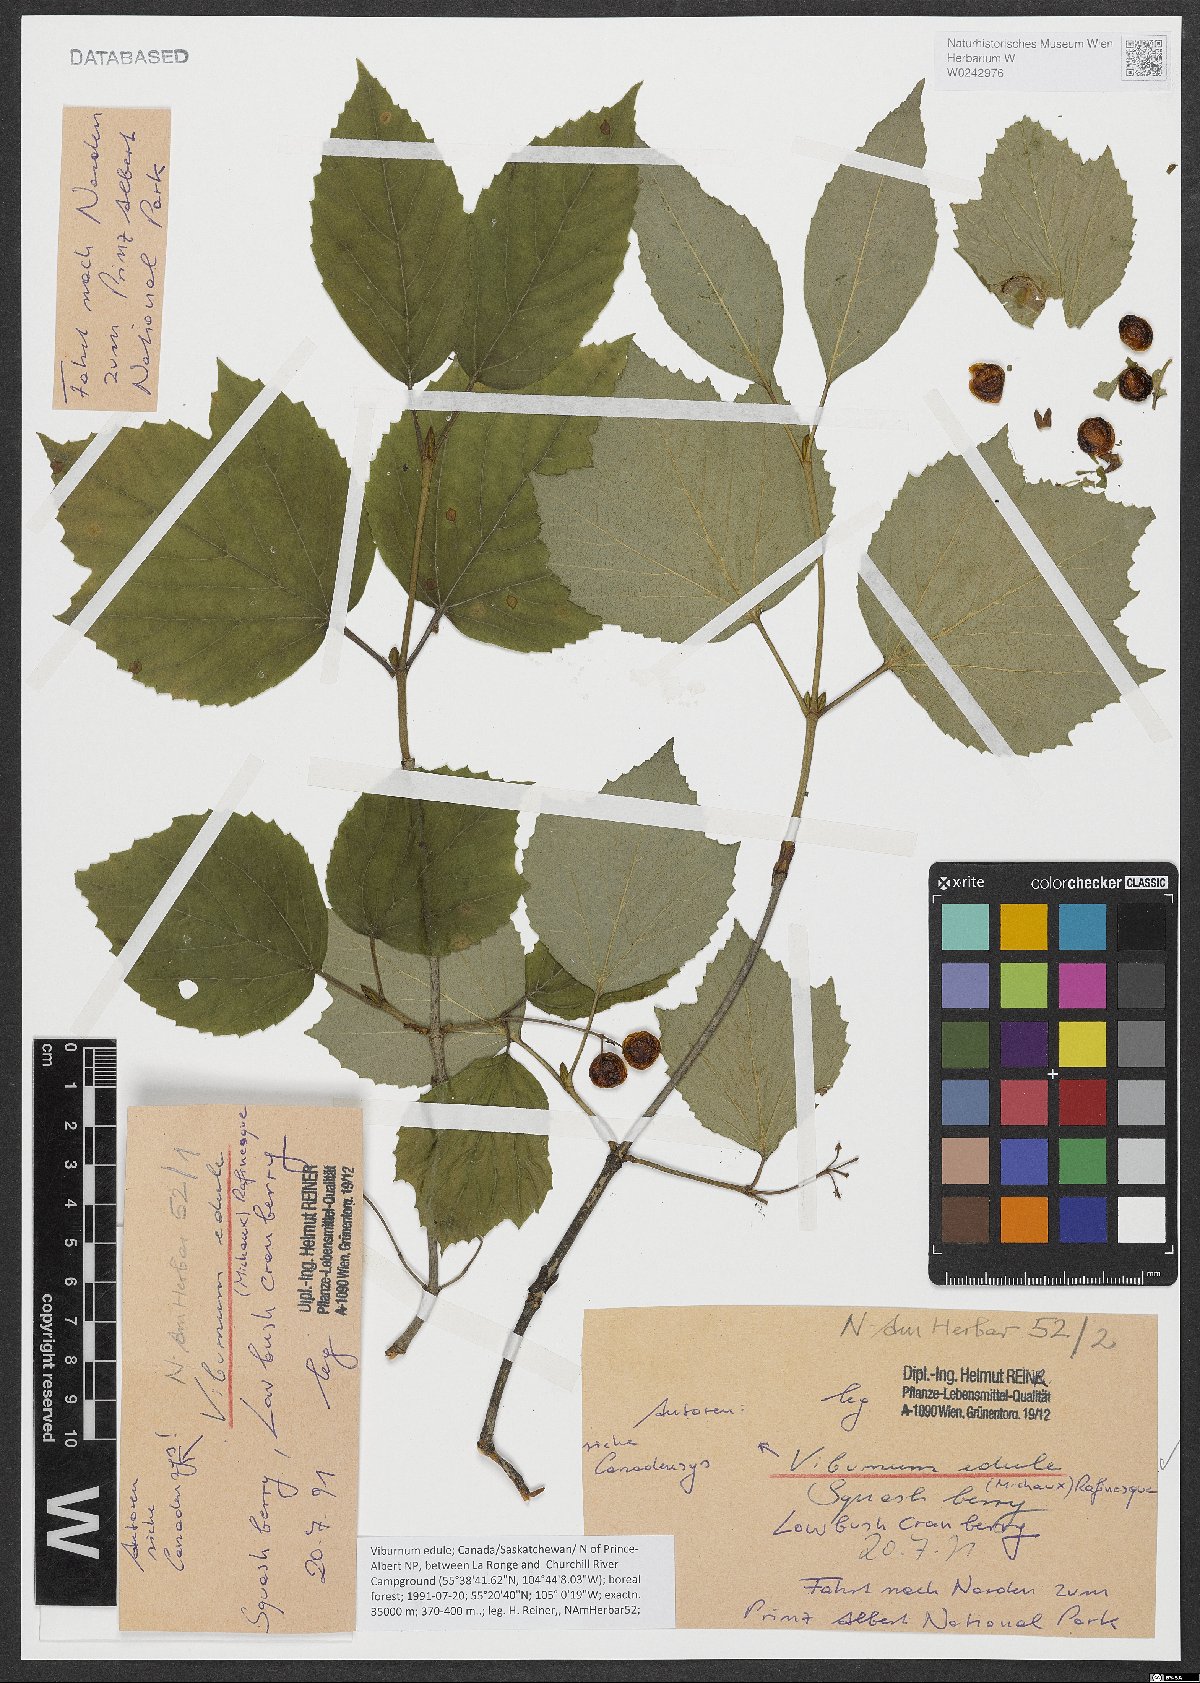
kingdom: Plantae
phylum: Tracheophyta
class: Magnoliopsida
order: Dipsacales
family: Viburnaceae
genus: Viburnum
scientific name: Viburnum edule
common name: Mooseberry
